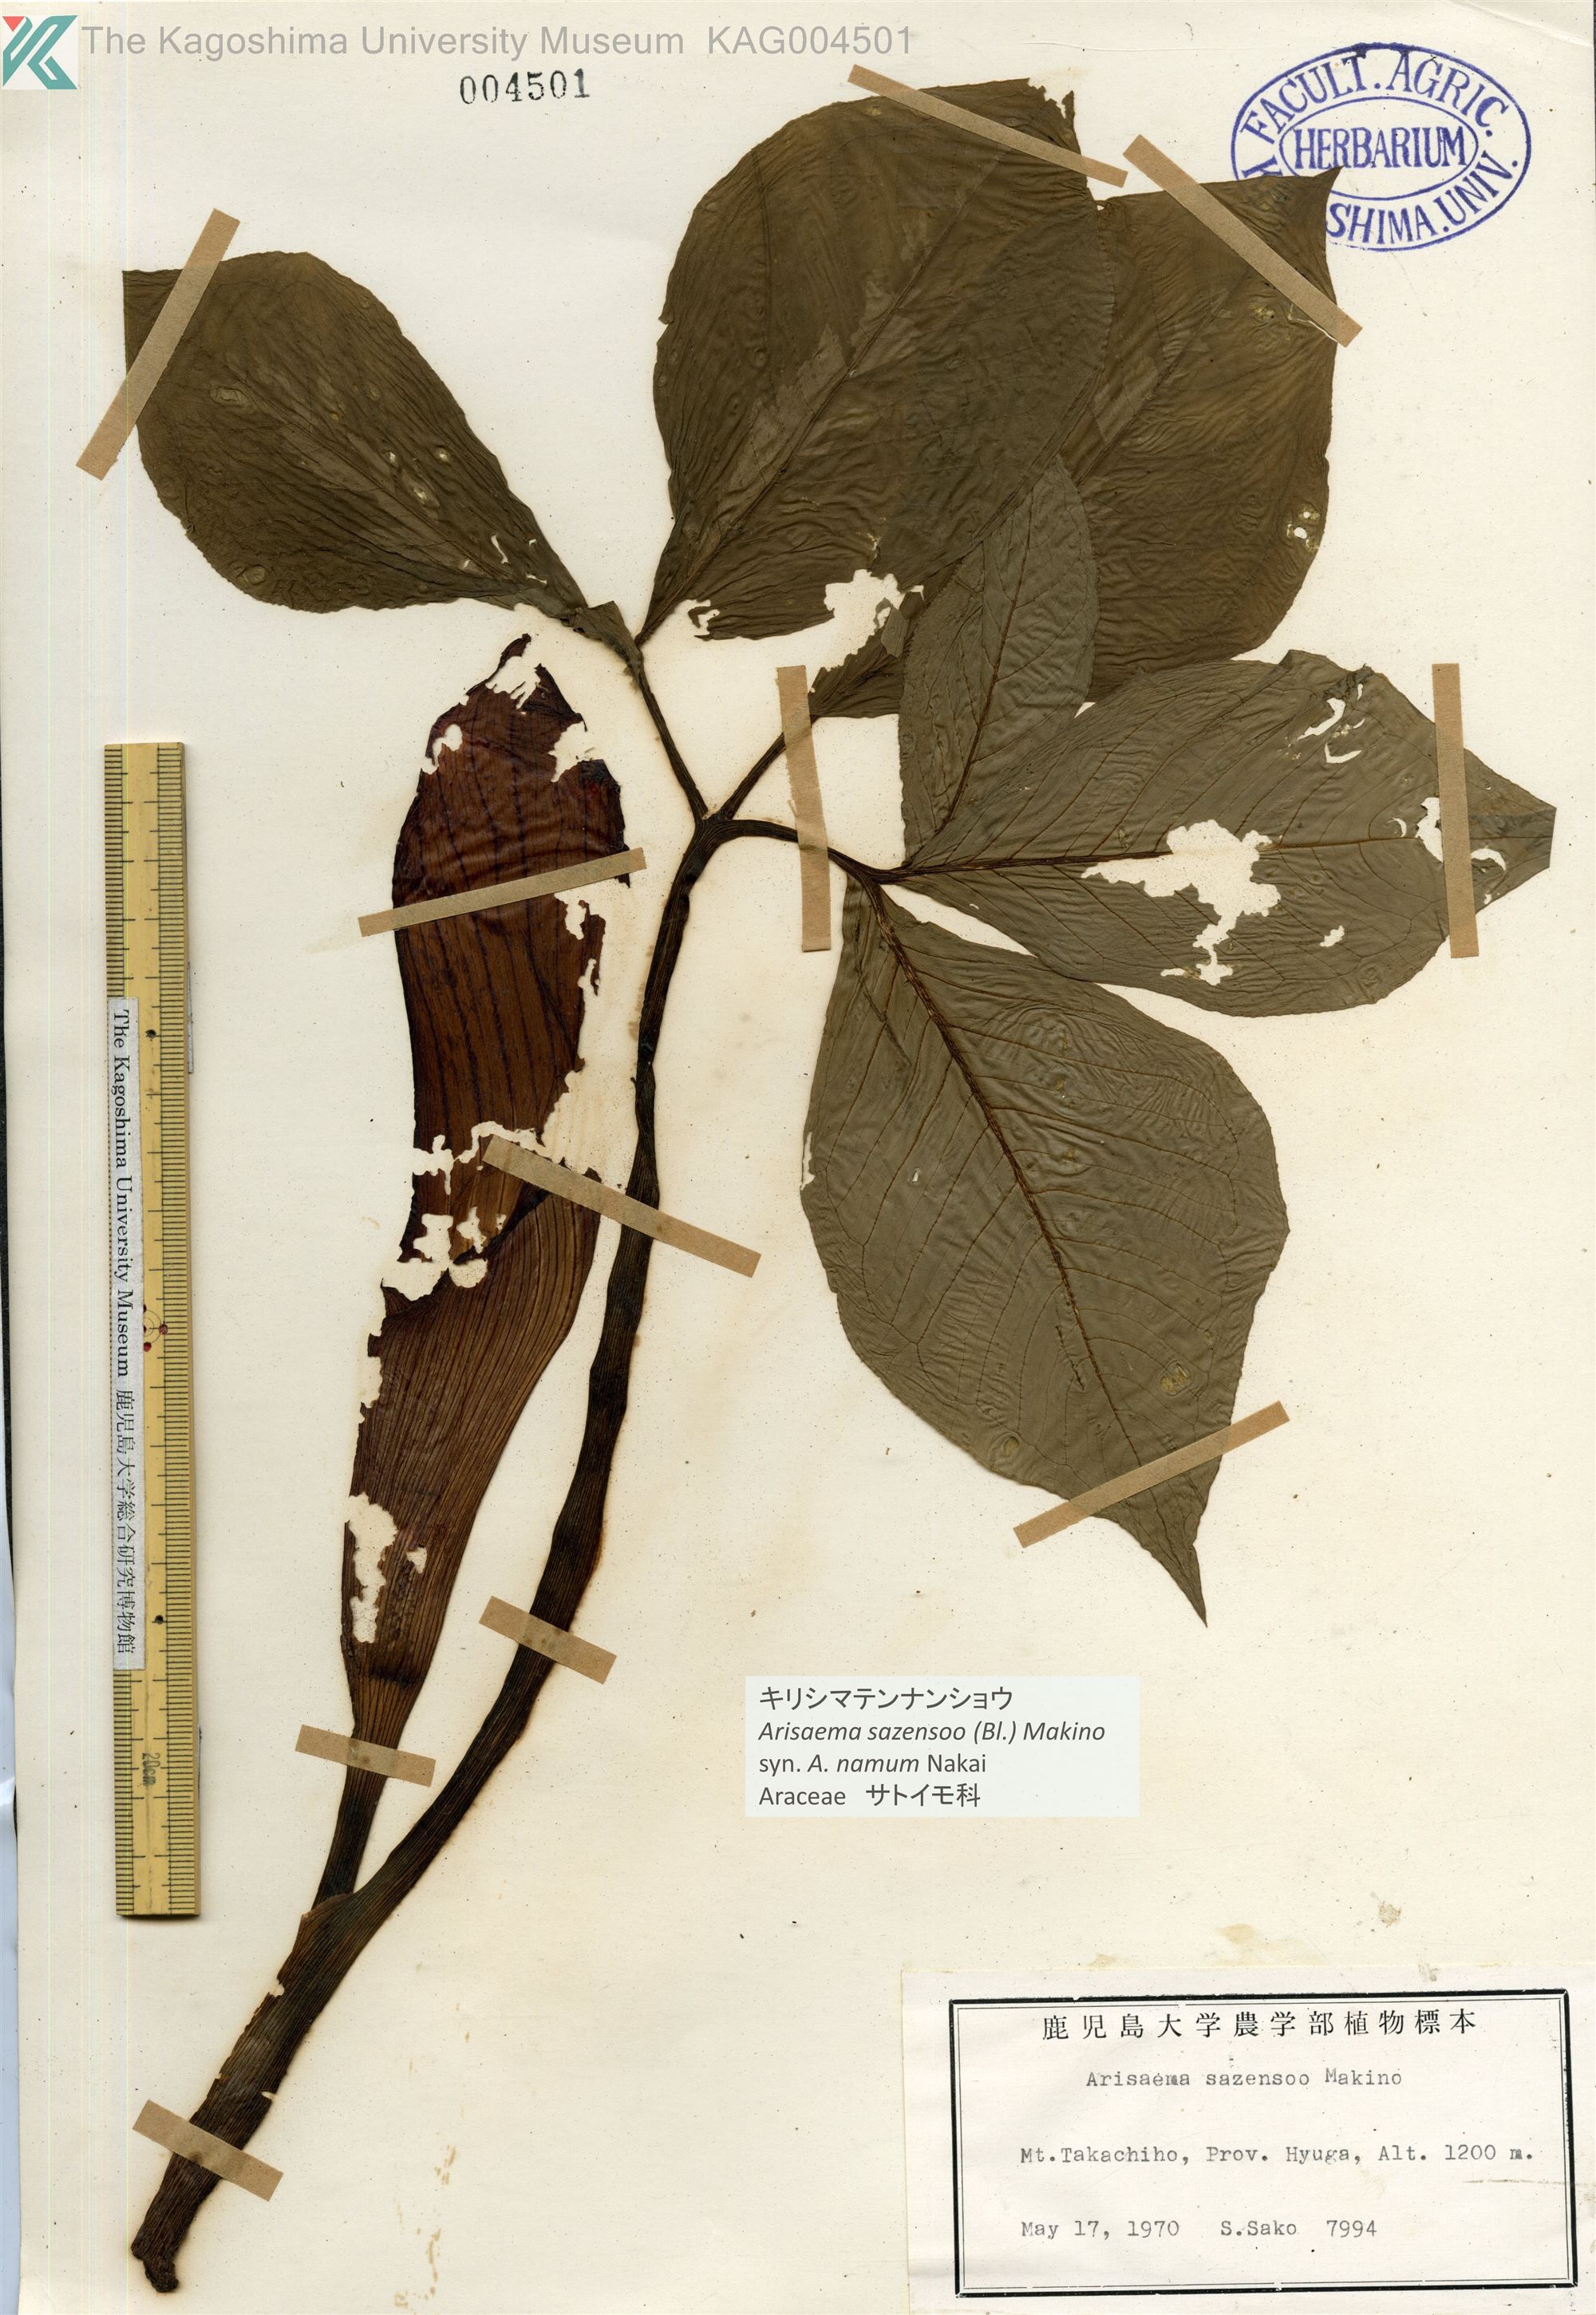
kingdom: Plantae
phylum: Tracheophyta
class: Liliopsida
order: Alismatales
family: Araceae
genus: Arisaema
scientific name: Arisaema sazensoo
